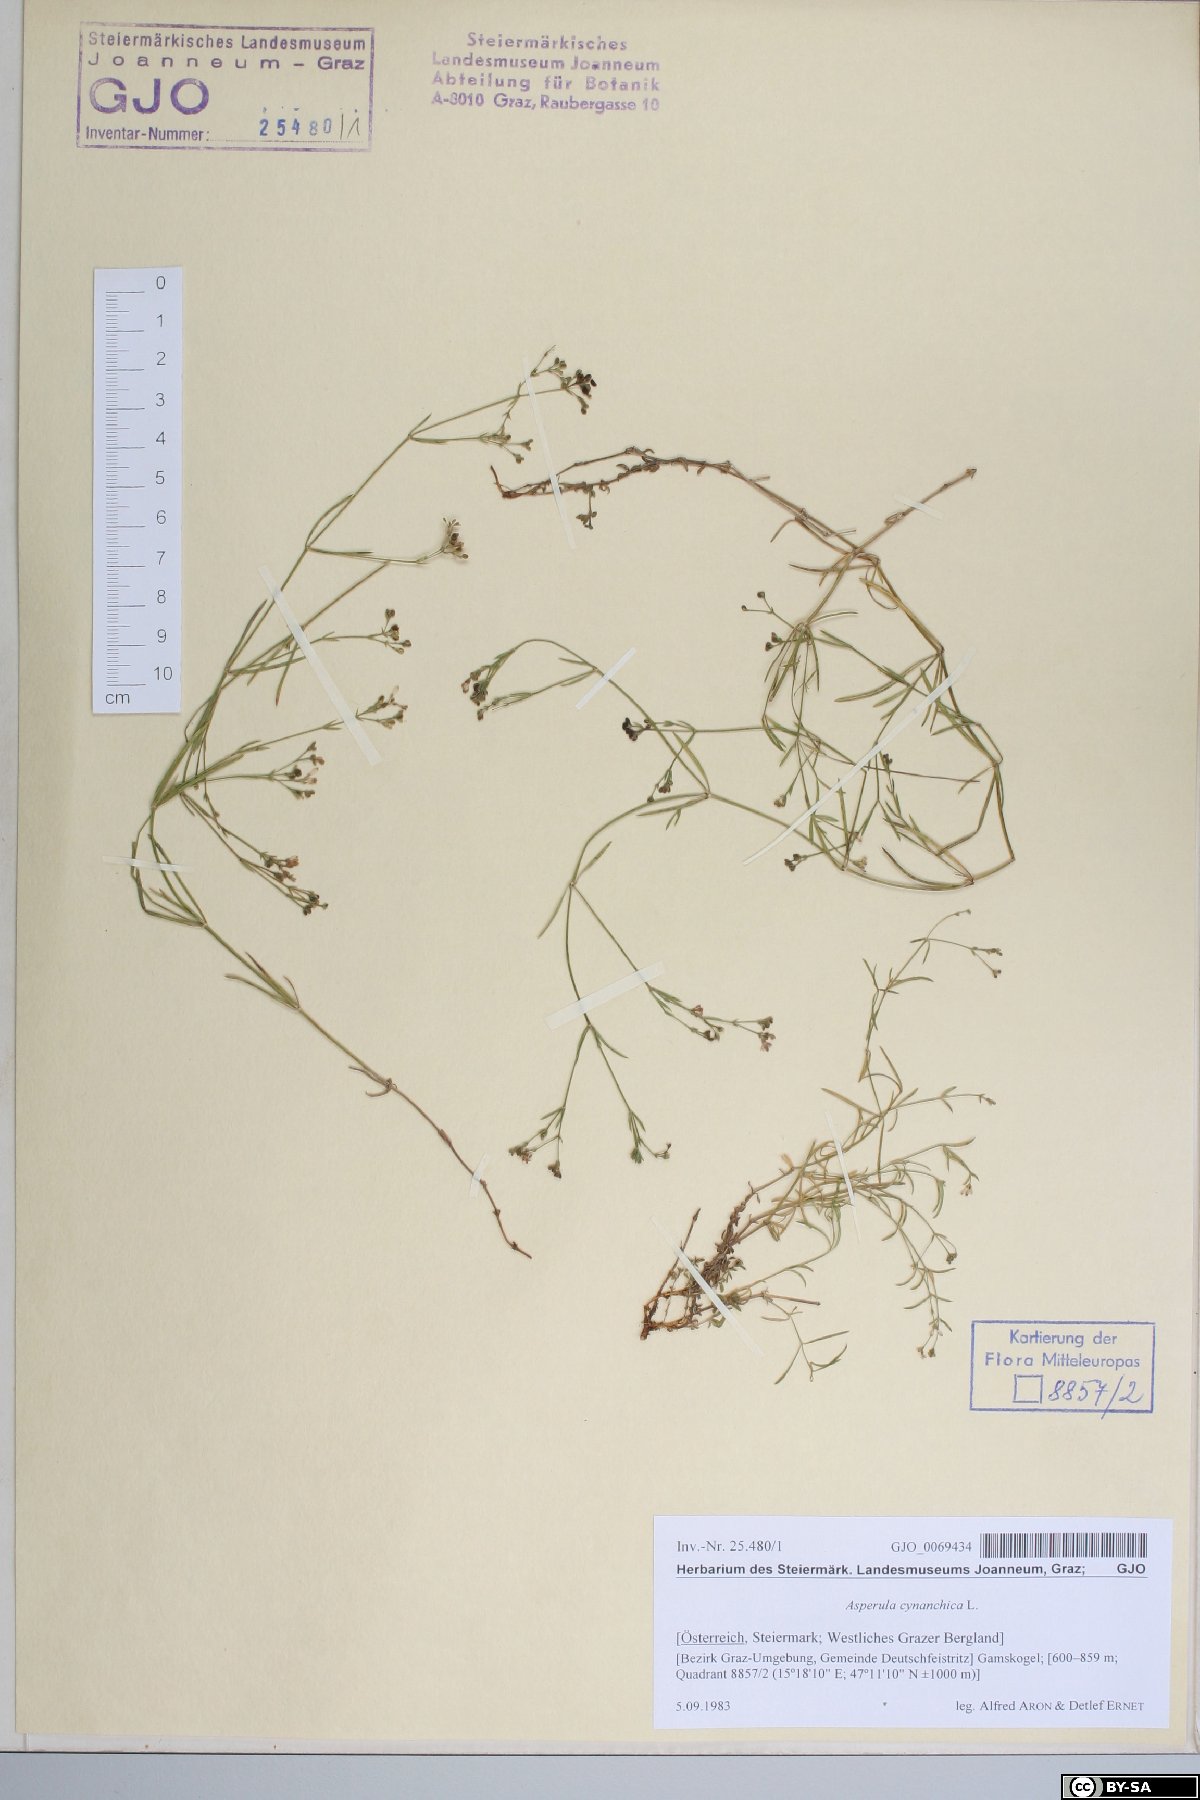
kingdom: Plantae
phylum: Tracheophyta
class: Magnoliopsida
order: Gentianales
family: Rubiaceae
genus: Cynanchica
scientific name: Cynanchica pyrenaica
